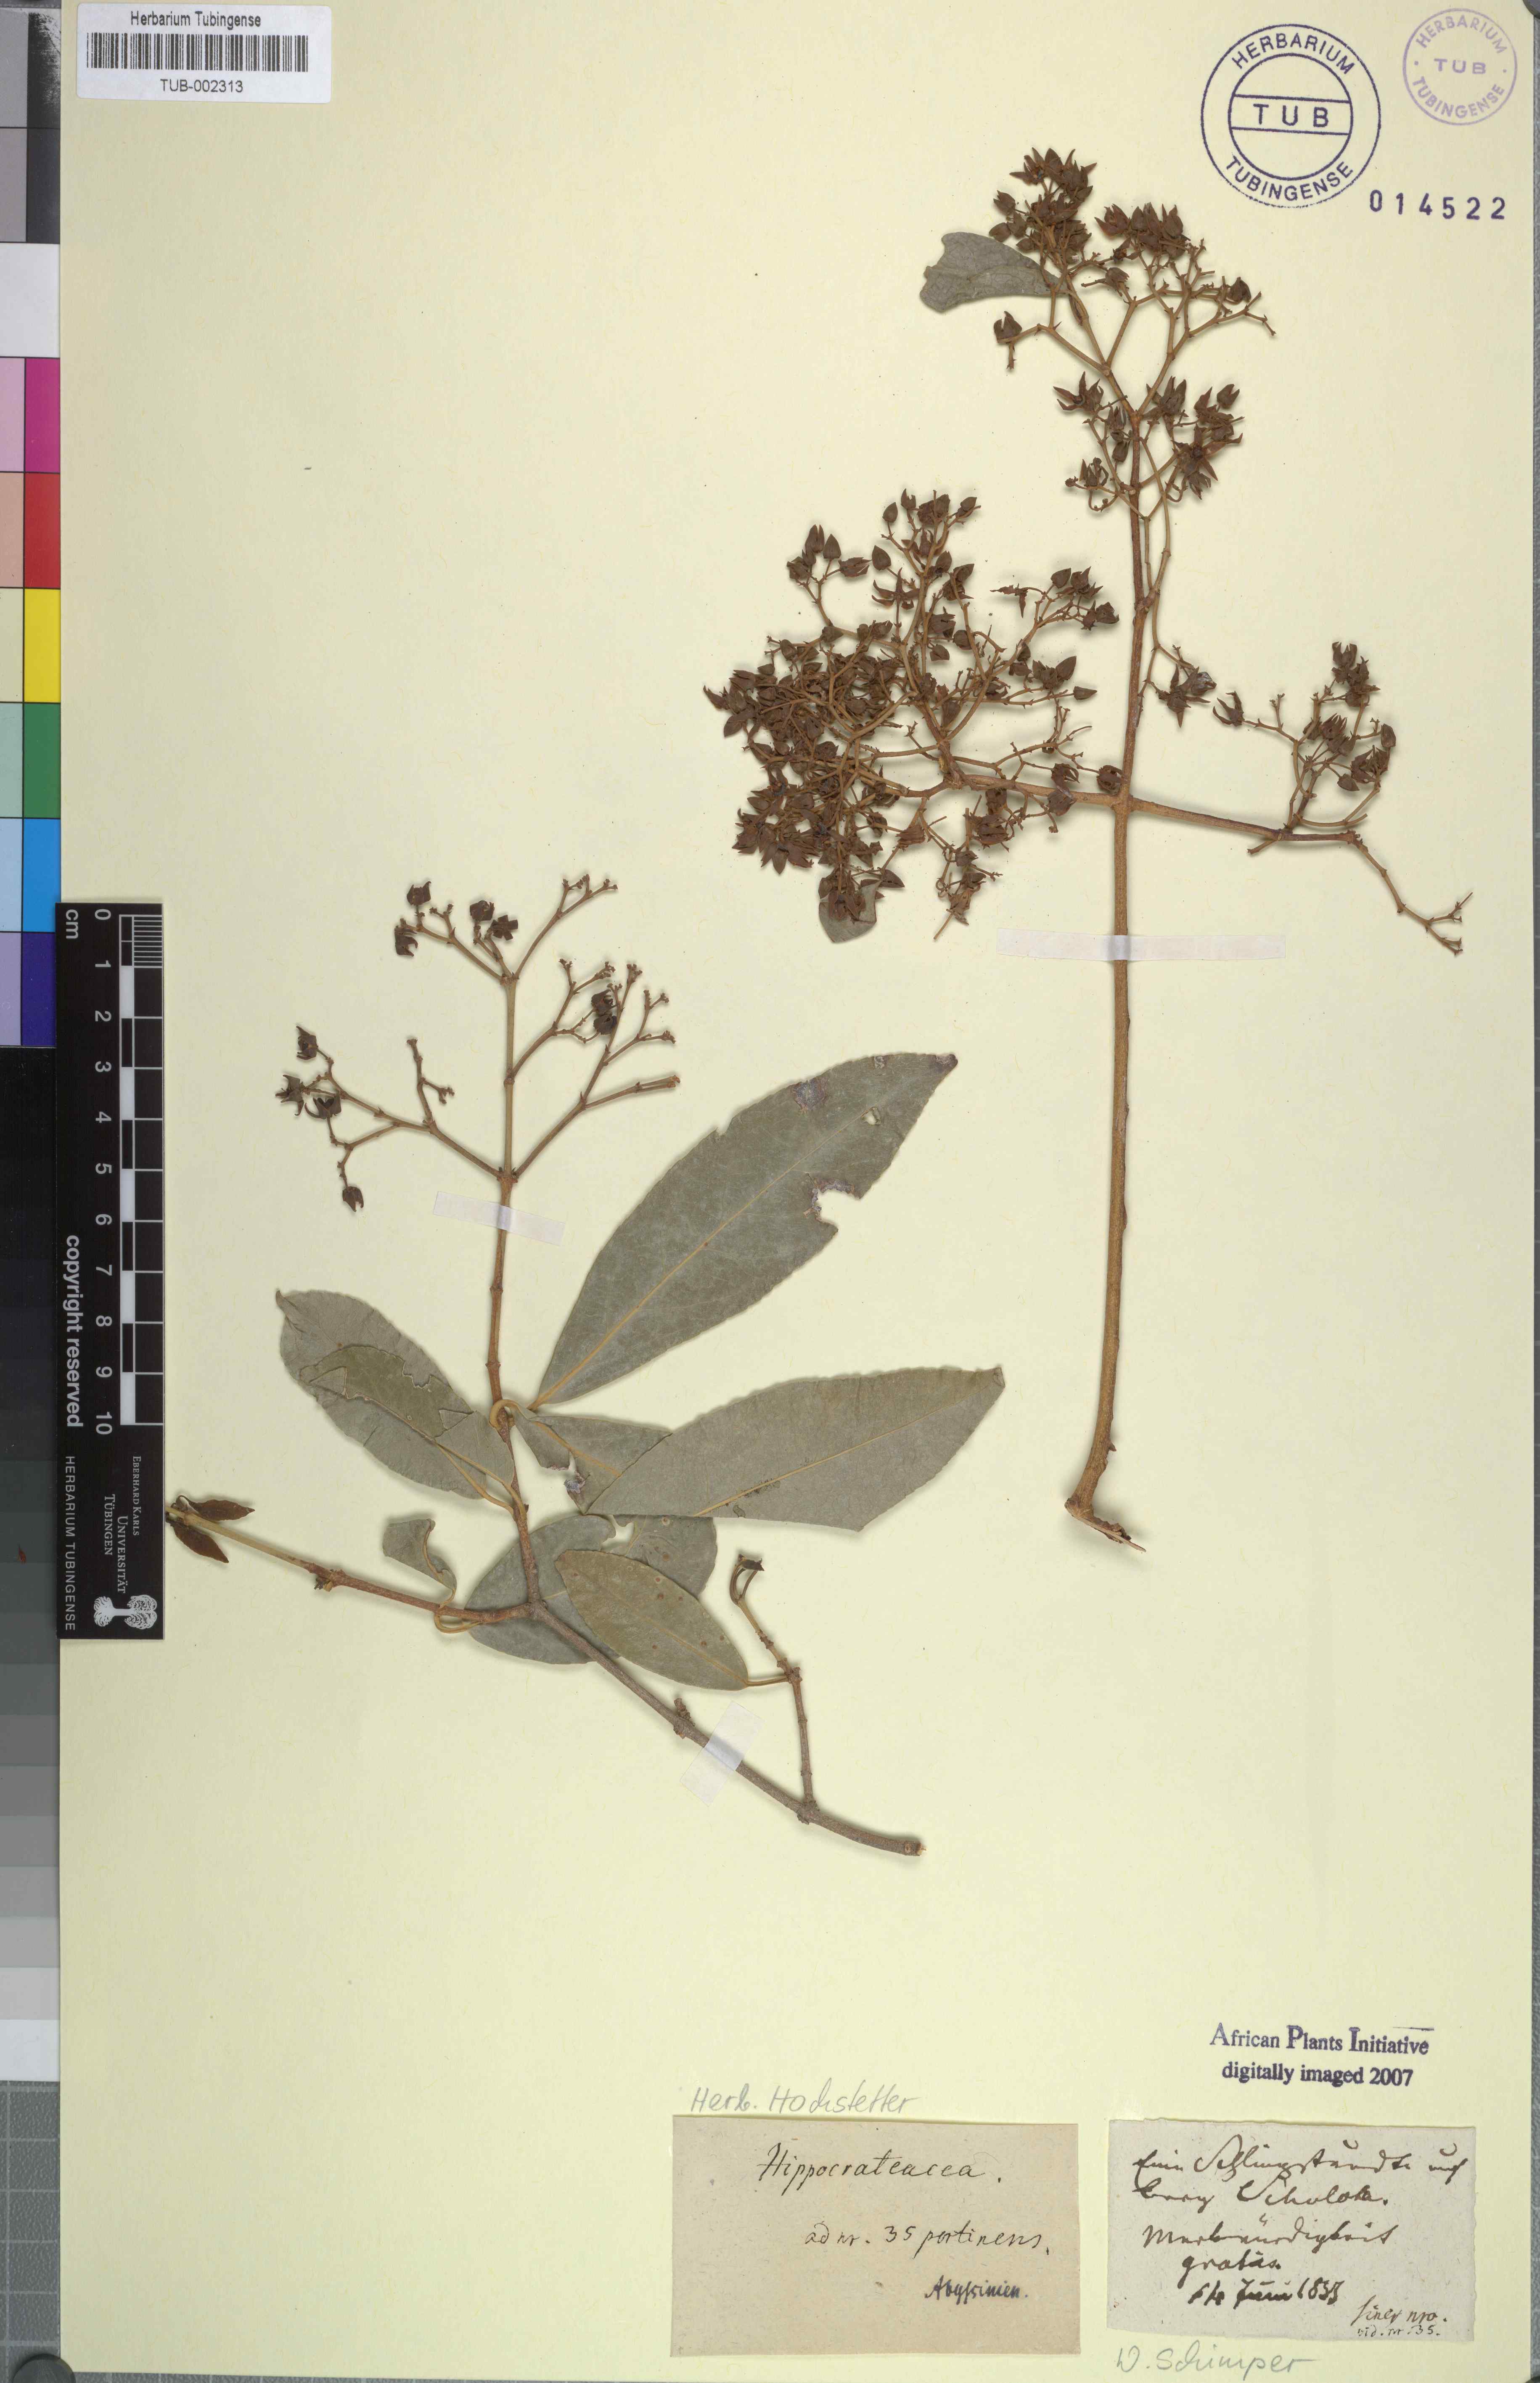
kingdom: Plantae
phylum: Tracheophyta
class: Magnoliopsida
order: Celastrales
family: Celastraceae
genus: Loeseneriella
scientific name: Loeseneriella obtusifolia
